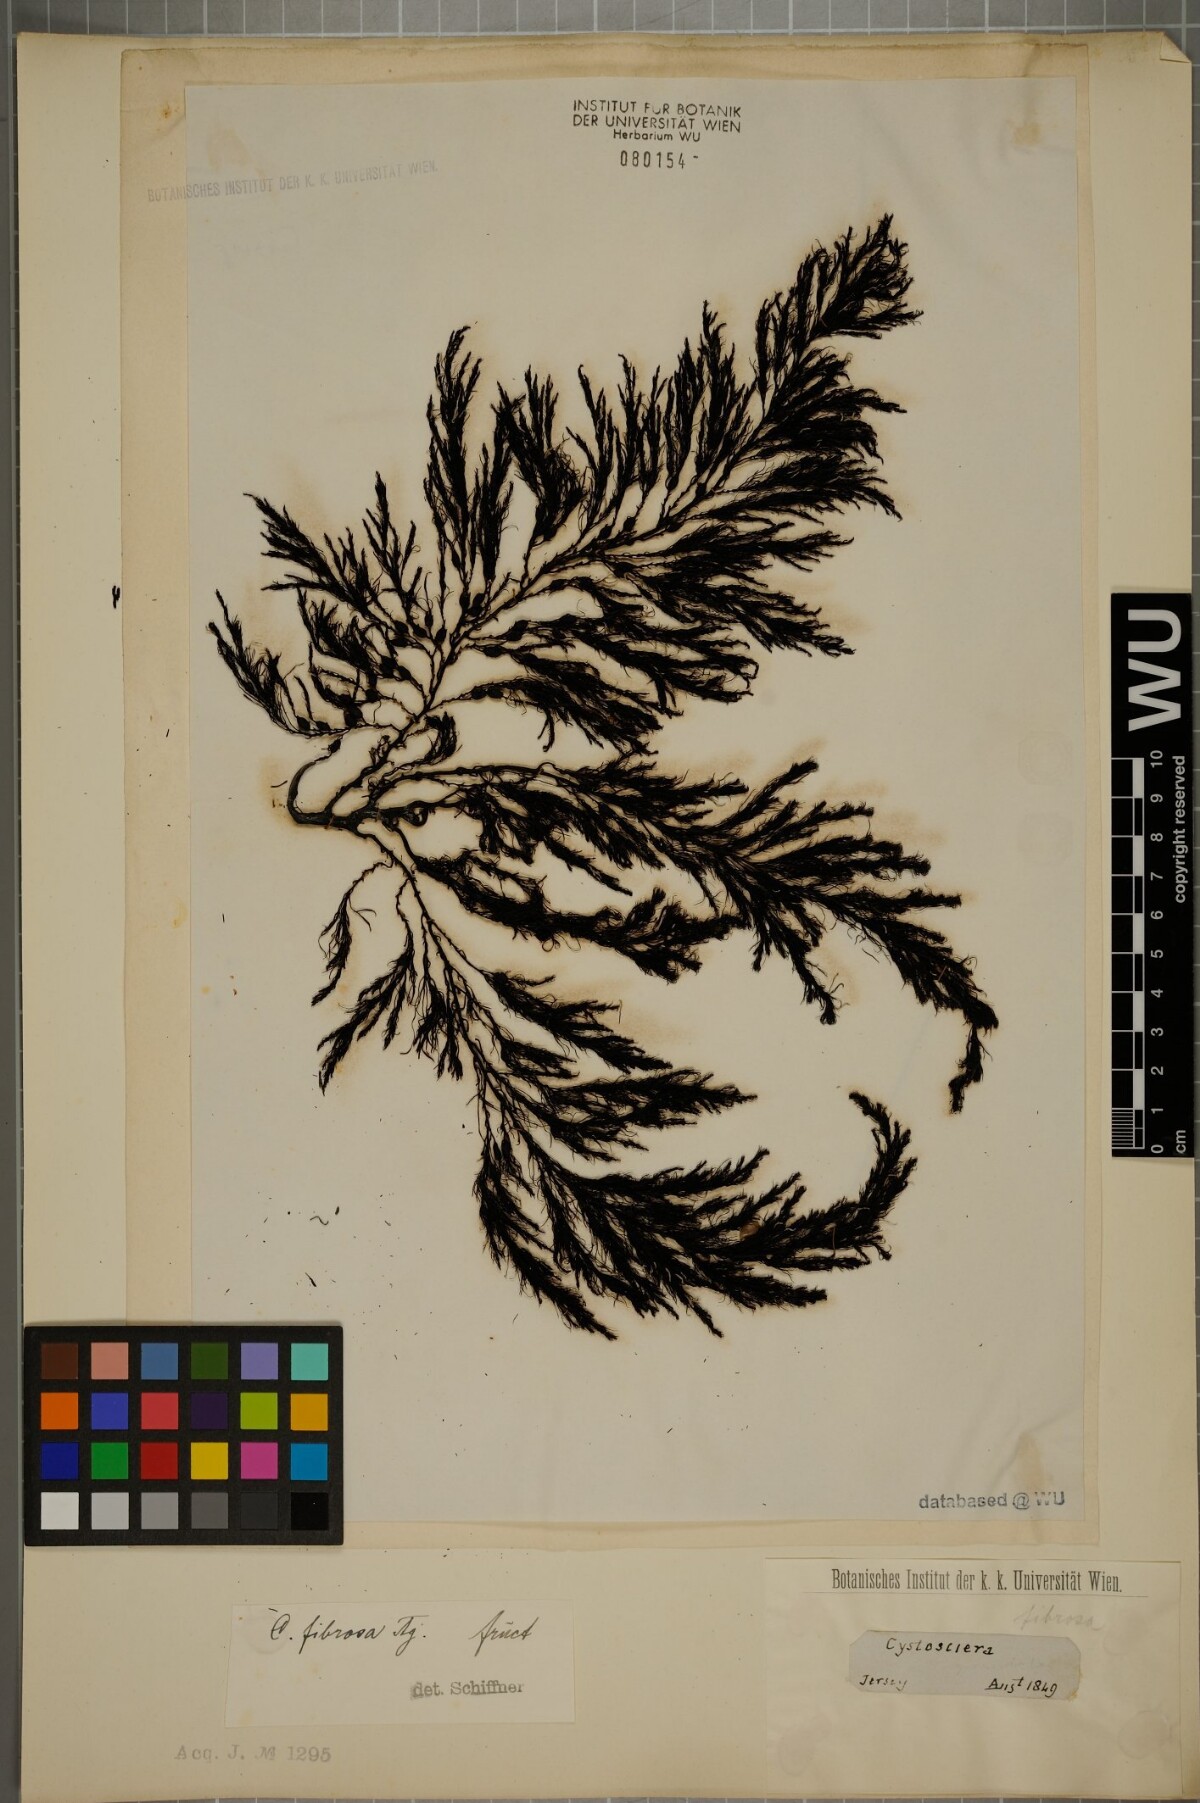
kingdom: Chromista
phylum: Ochrophyta
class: Phaeophyceae
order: Fucales
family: Sargassaceae
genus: Cystoseira
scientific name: Cystoseira Gongolaria baccata
